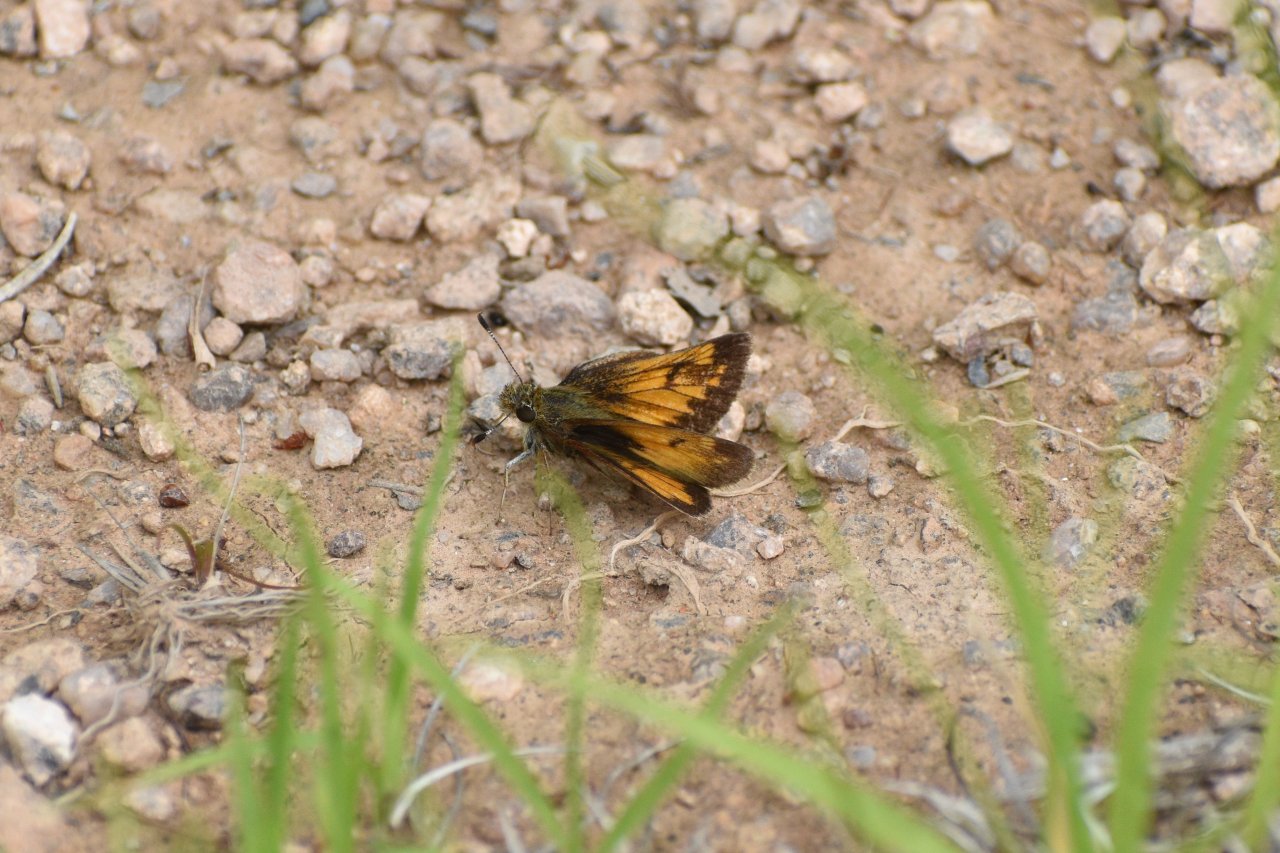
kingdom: Animalia
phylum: Arthropoda
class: Insecta
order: Lepidoptera
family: Hesperiidae
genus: Lon
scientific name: Lon hobomok
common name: Hobomok Skipper
